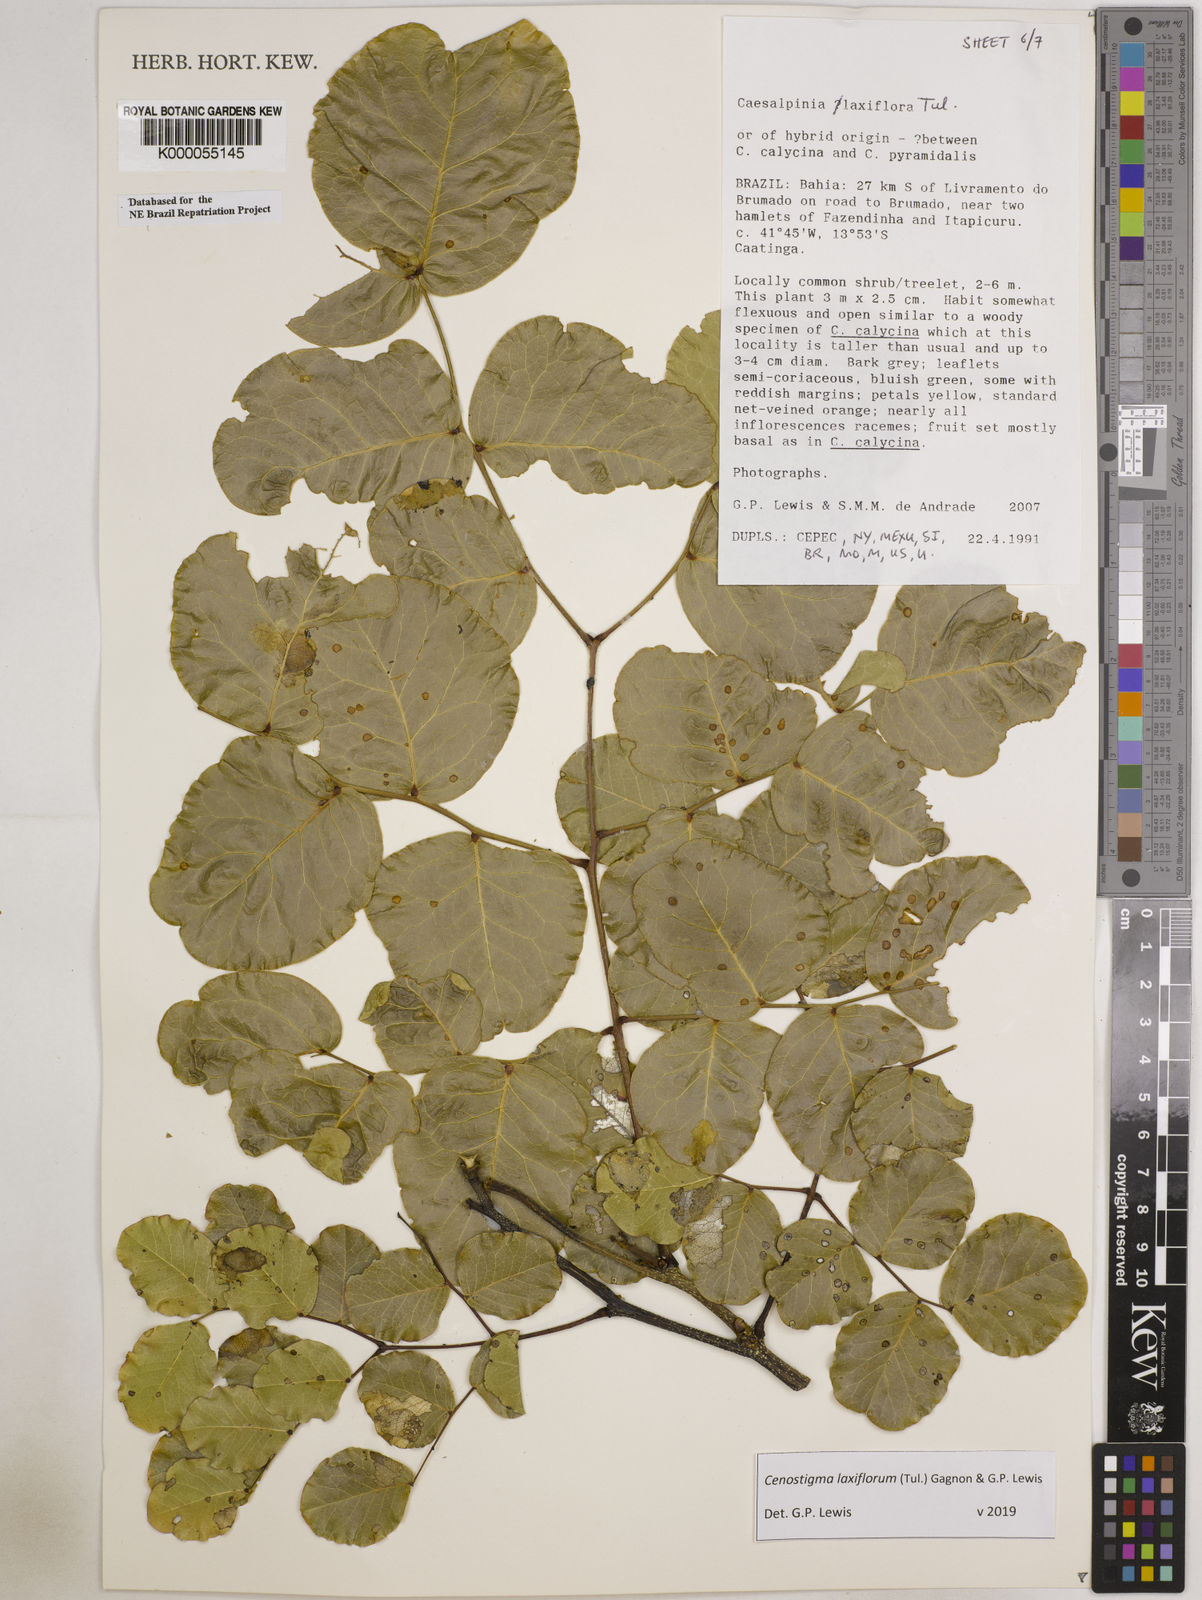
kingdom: Plantae
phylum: Tracheophyta
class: Magnoliopsida
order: Fabales
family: Fabaceae
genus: Cenostigma
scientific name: Cenostigma laxiflorum
